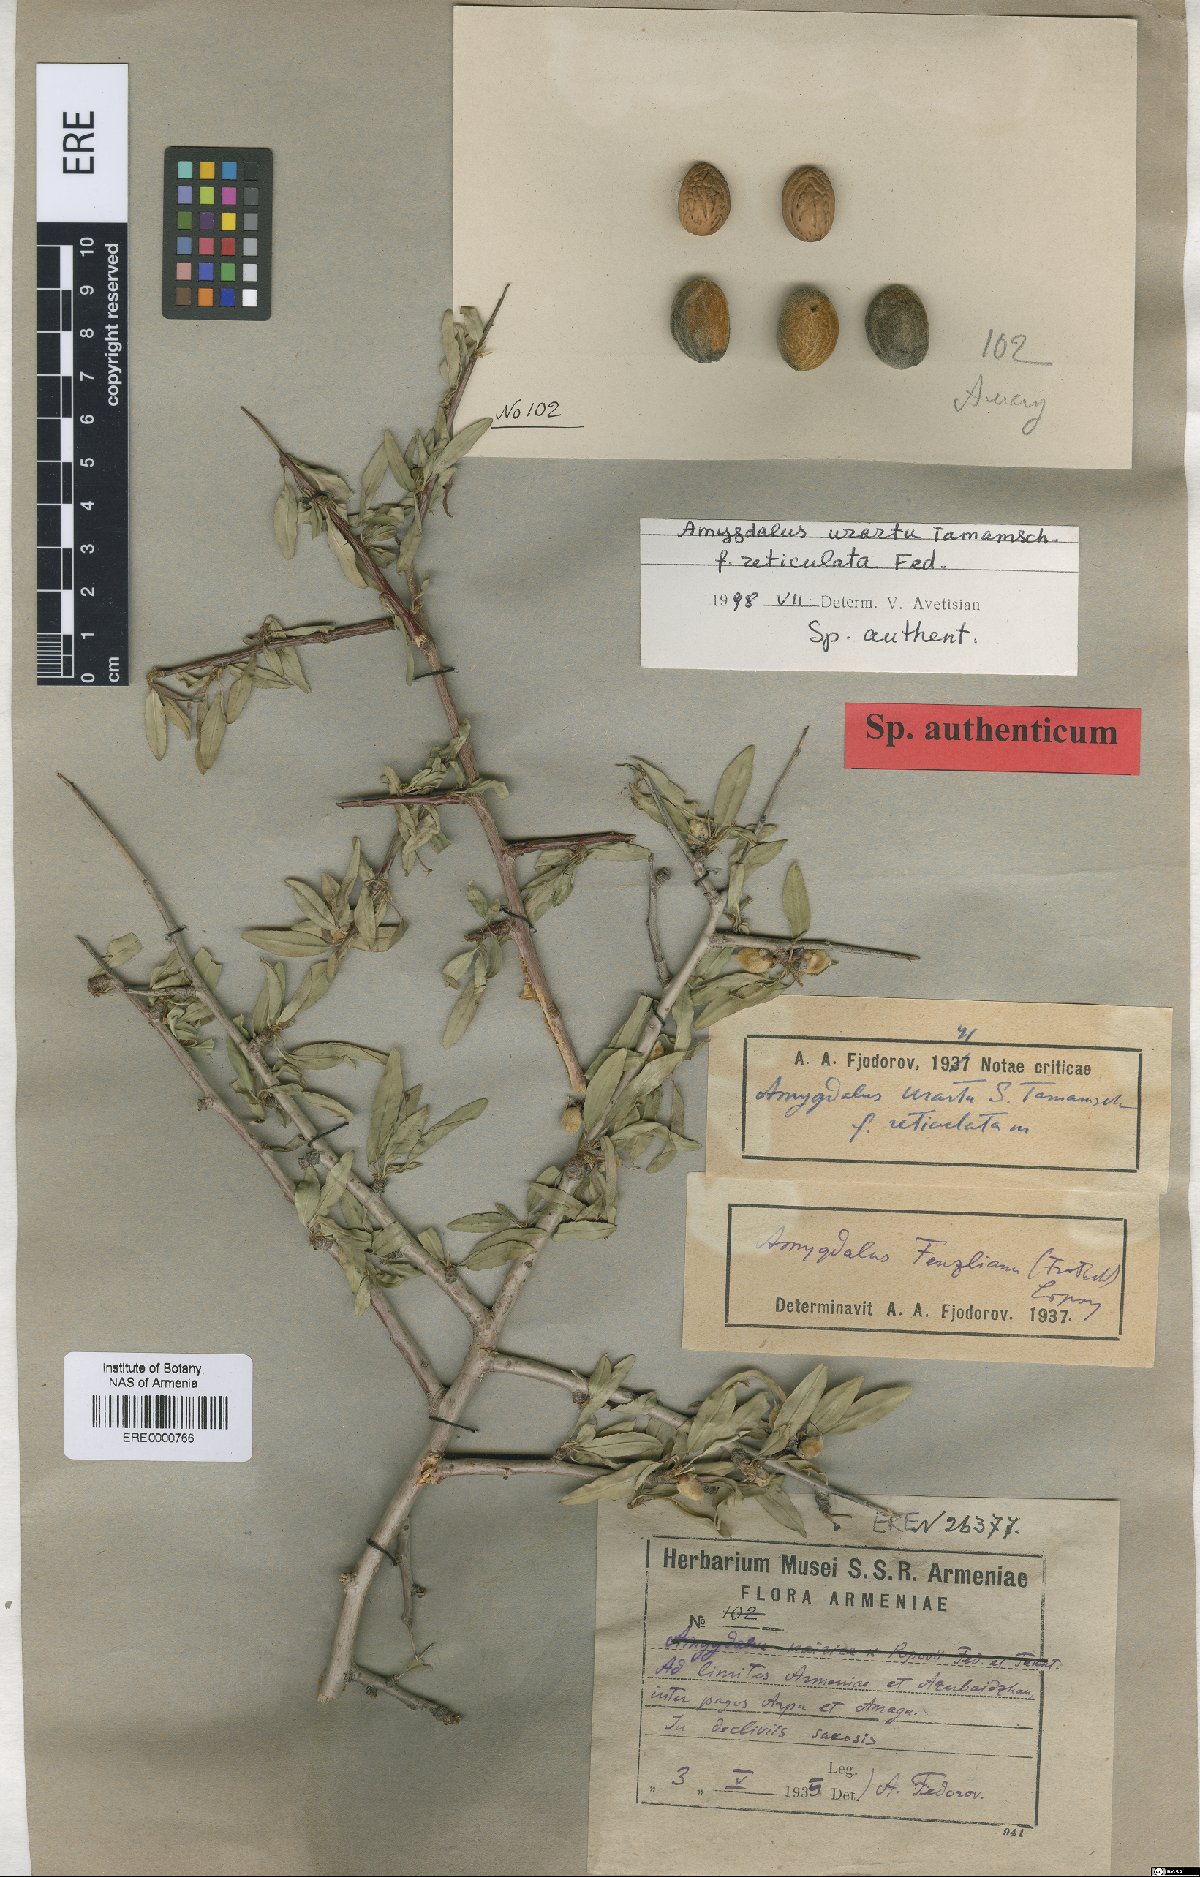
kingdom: Plantae
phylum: Tracheophyta
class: Magnoliopsida
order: Rosales
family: Rosaceae
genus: Prunus
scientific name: Prunus urartu
